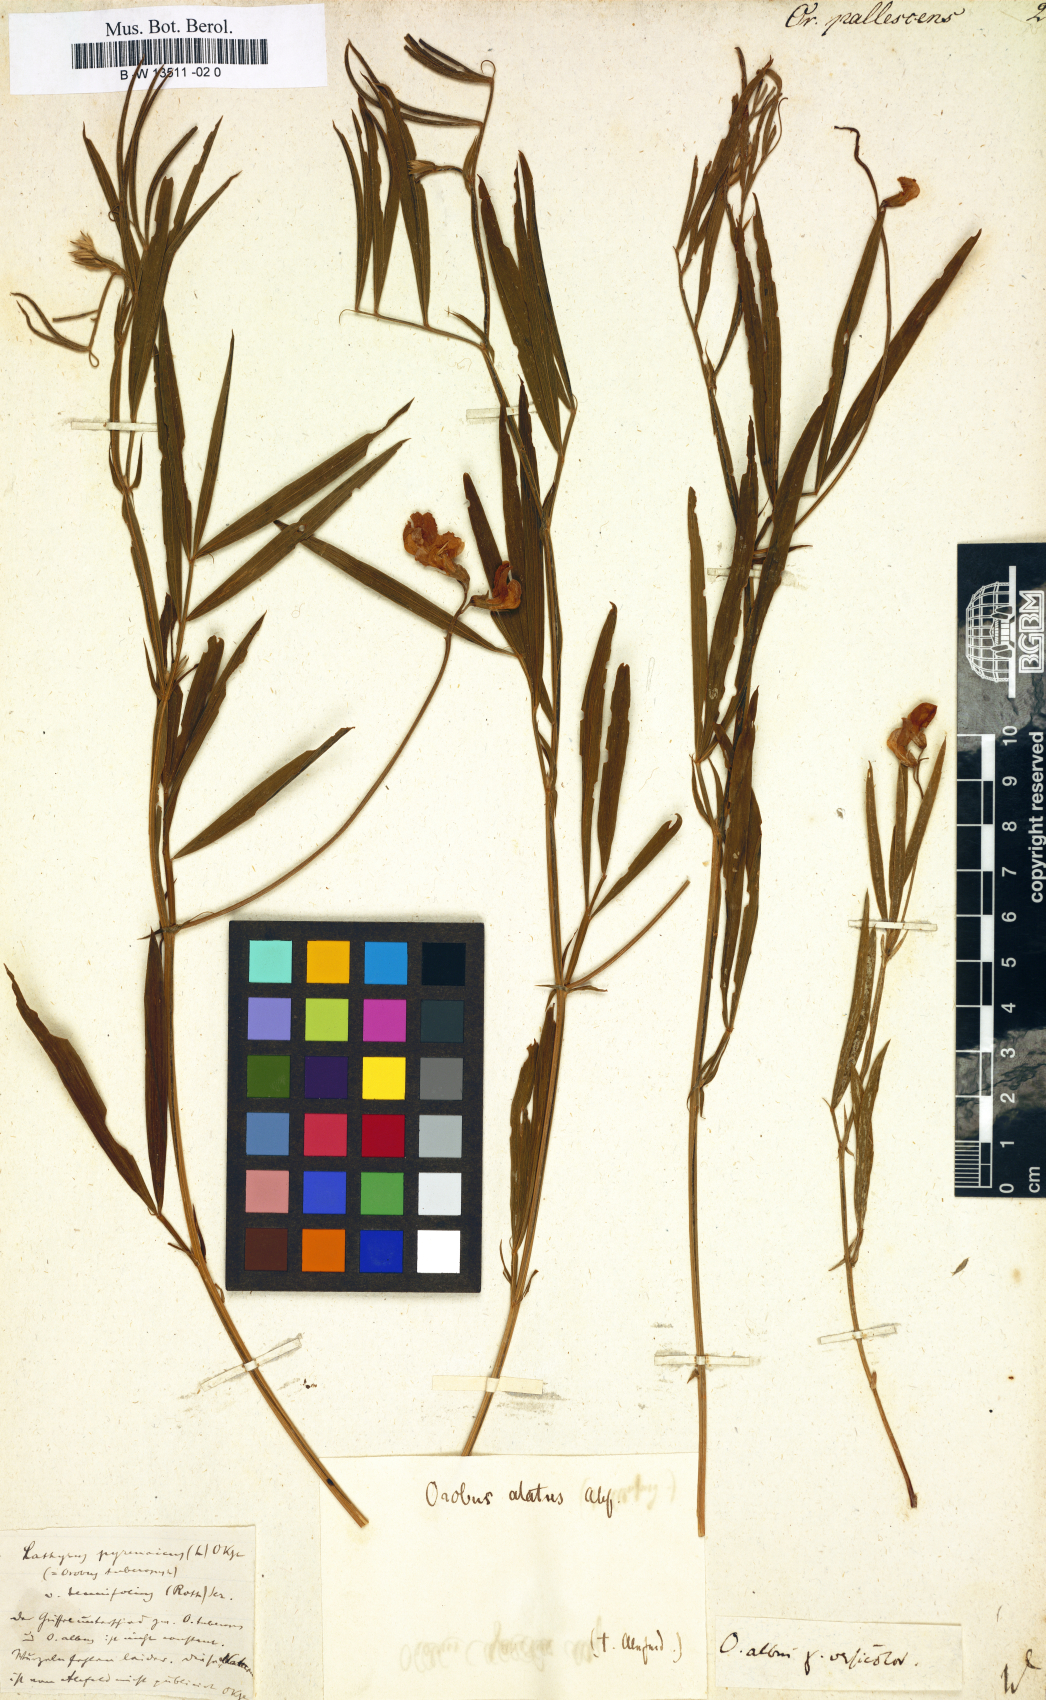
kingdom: Plantae
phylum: Tracheophyta
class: Magnoliopsida
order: Fabales
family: Fabaceae
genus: Lathyrus
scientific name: Lathyrus pallescens
